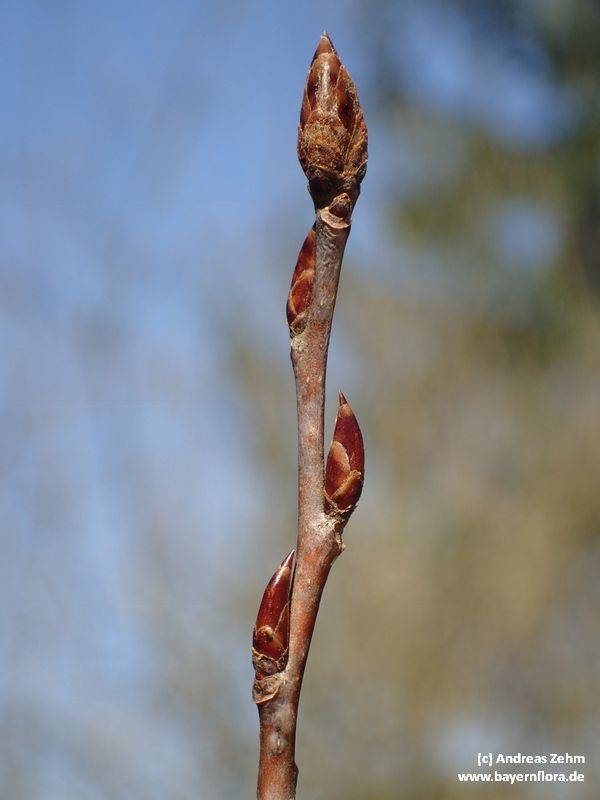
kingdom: Plantae
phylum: Tracheophyta
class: Magnoliopsida
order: Malpighiales
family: Salicaceae
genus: Populus
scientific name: Populus tremula
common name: European aspen
